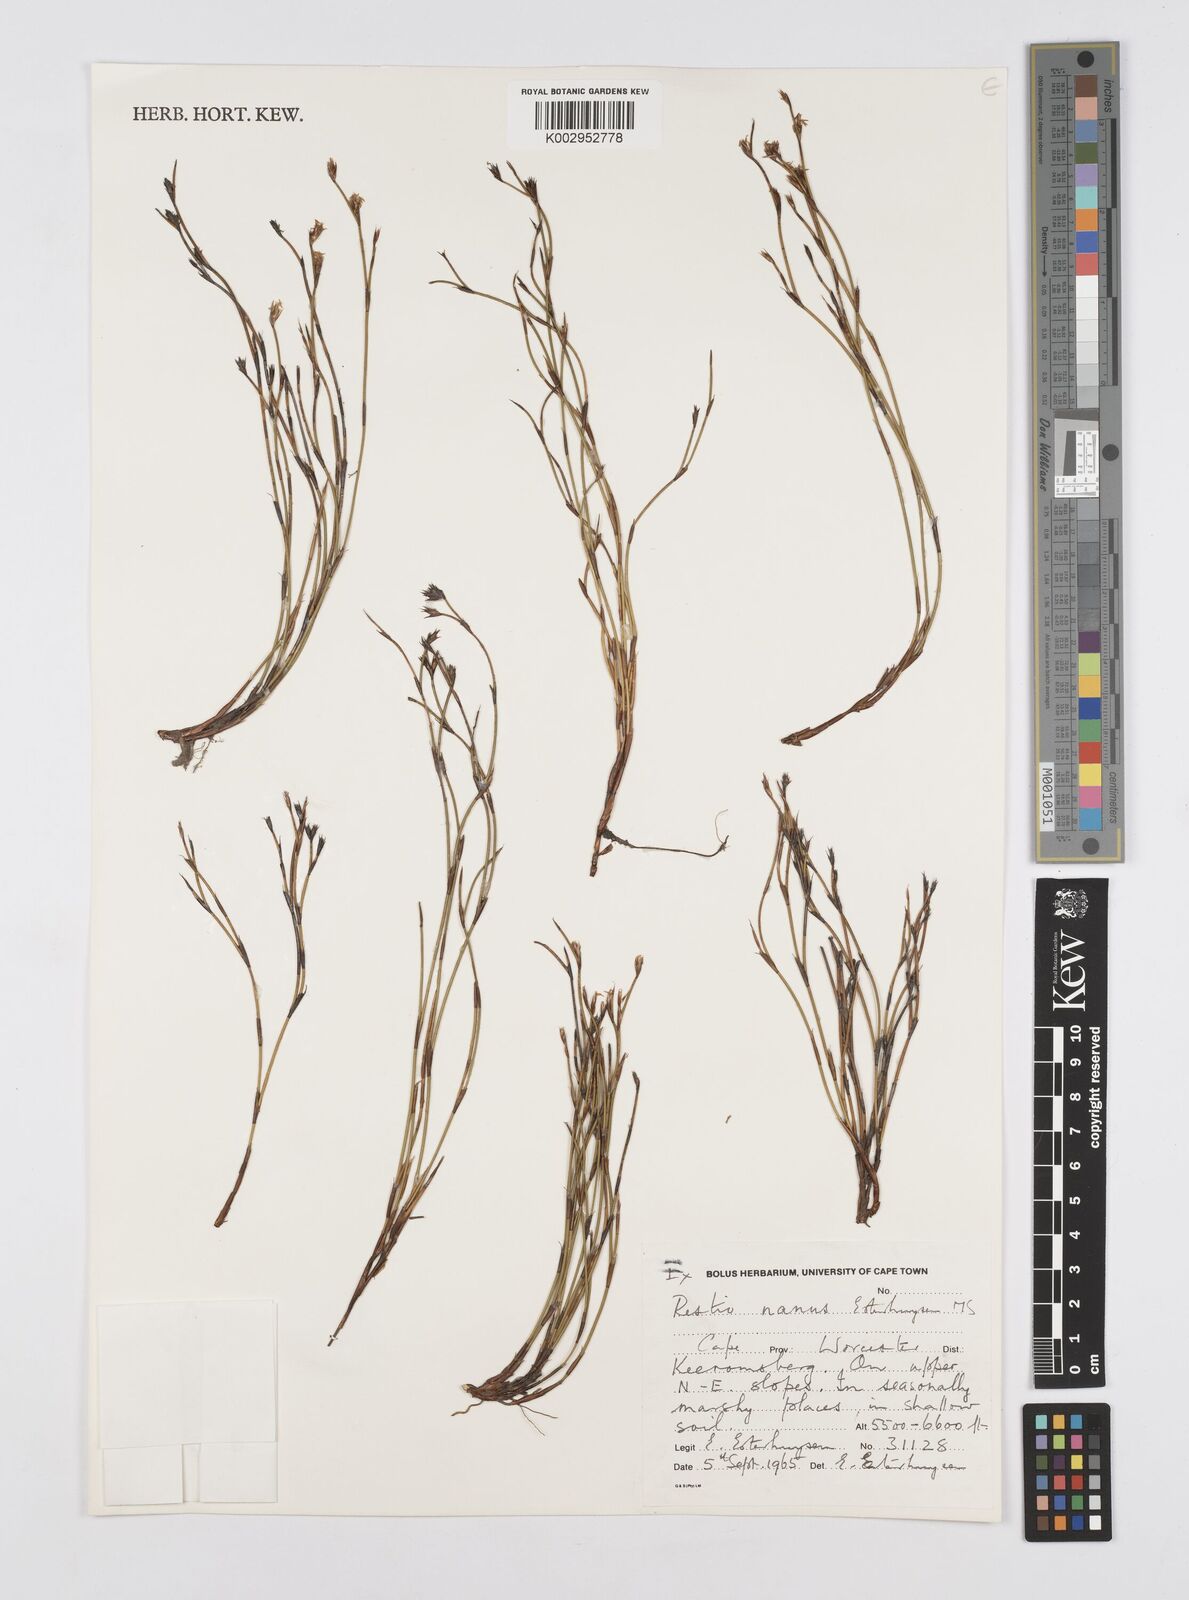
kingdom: Plantae
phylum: Tracheophyta
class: Liliopsida
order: Poales
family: Restionaceae
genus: Restio
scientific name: Restio nanus
